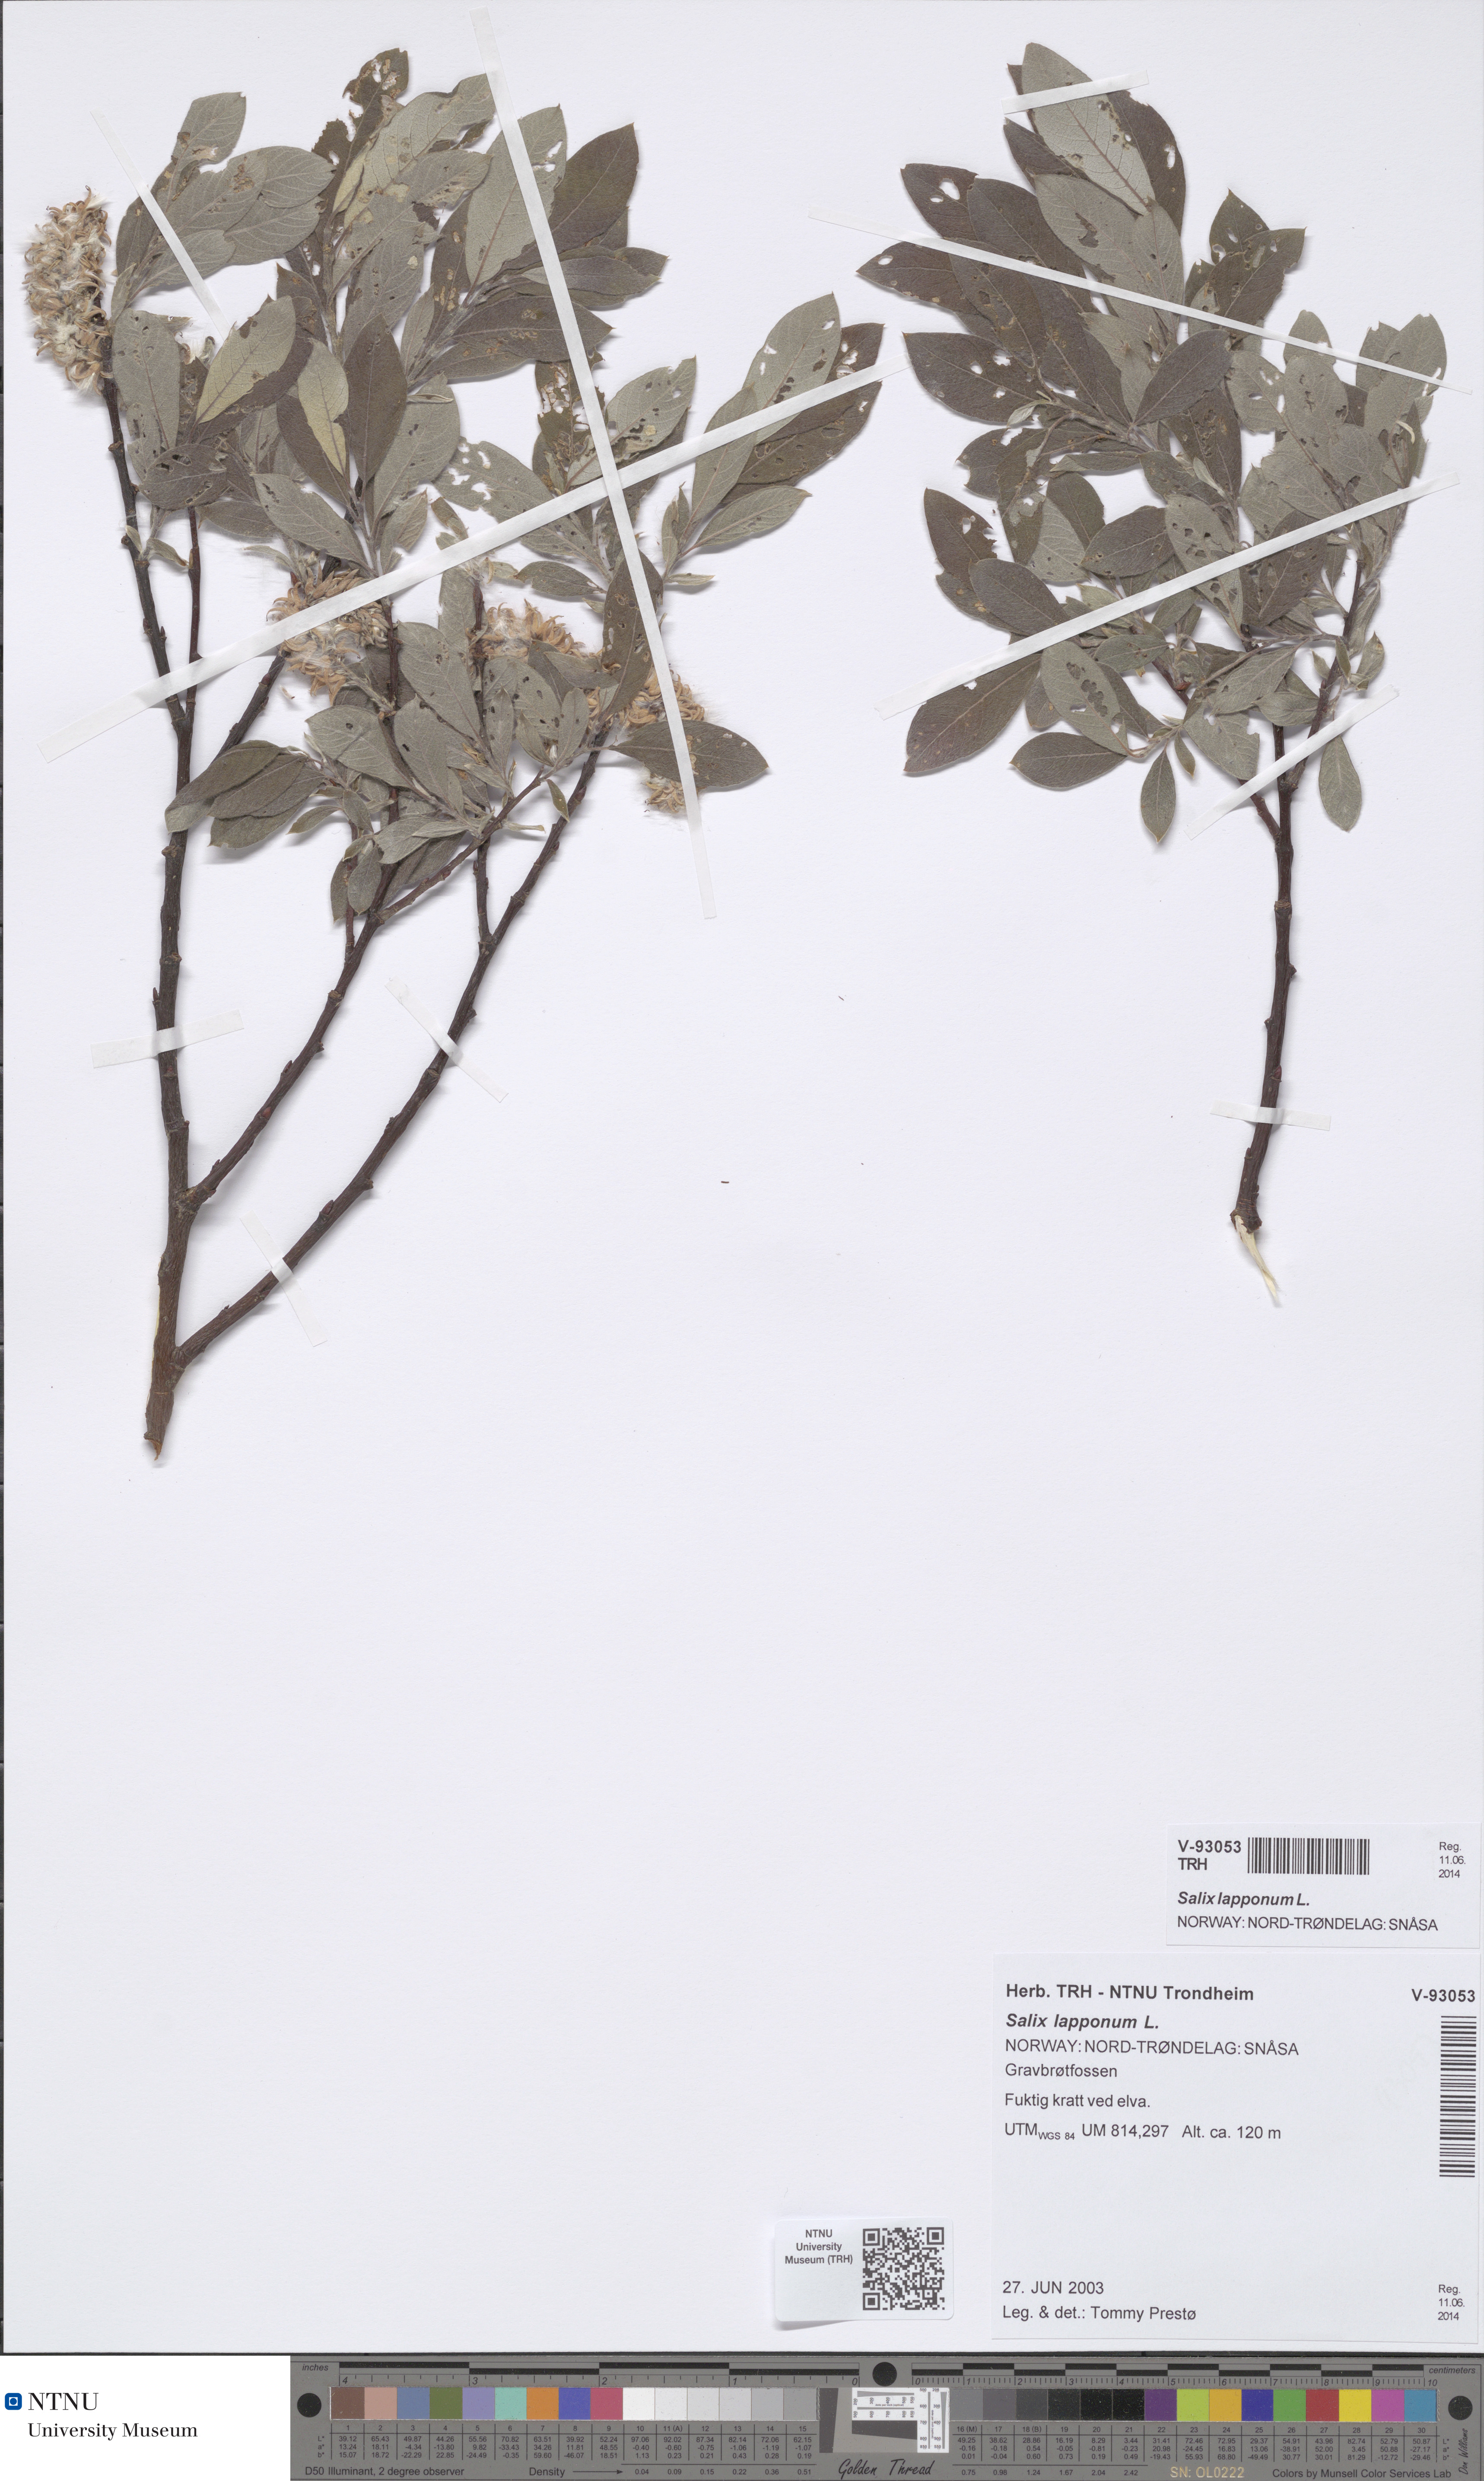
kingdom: Plantae
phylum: Tracheophyta
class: Magnoliopsida
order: Malpighiales
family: Salicaceae
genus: Salix
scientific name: Salix lapponum
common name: Downy willow
